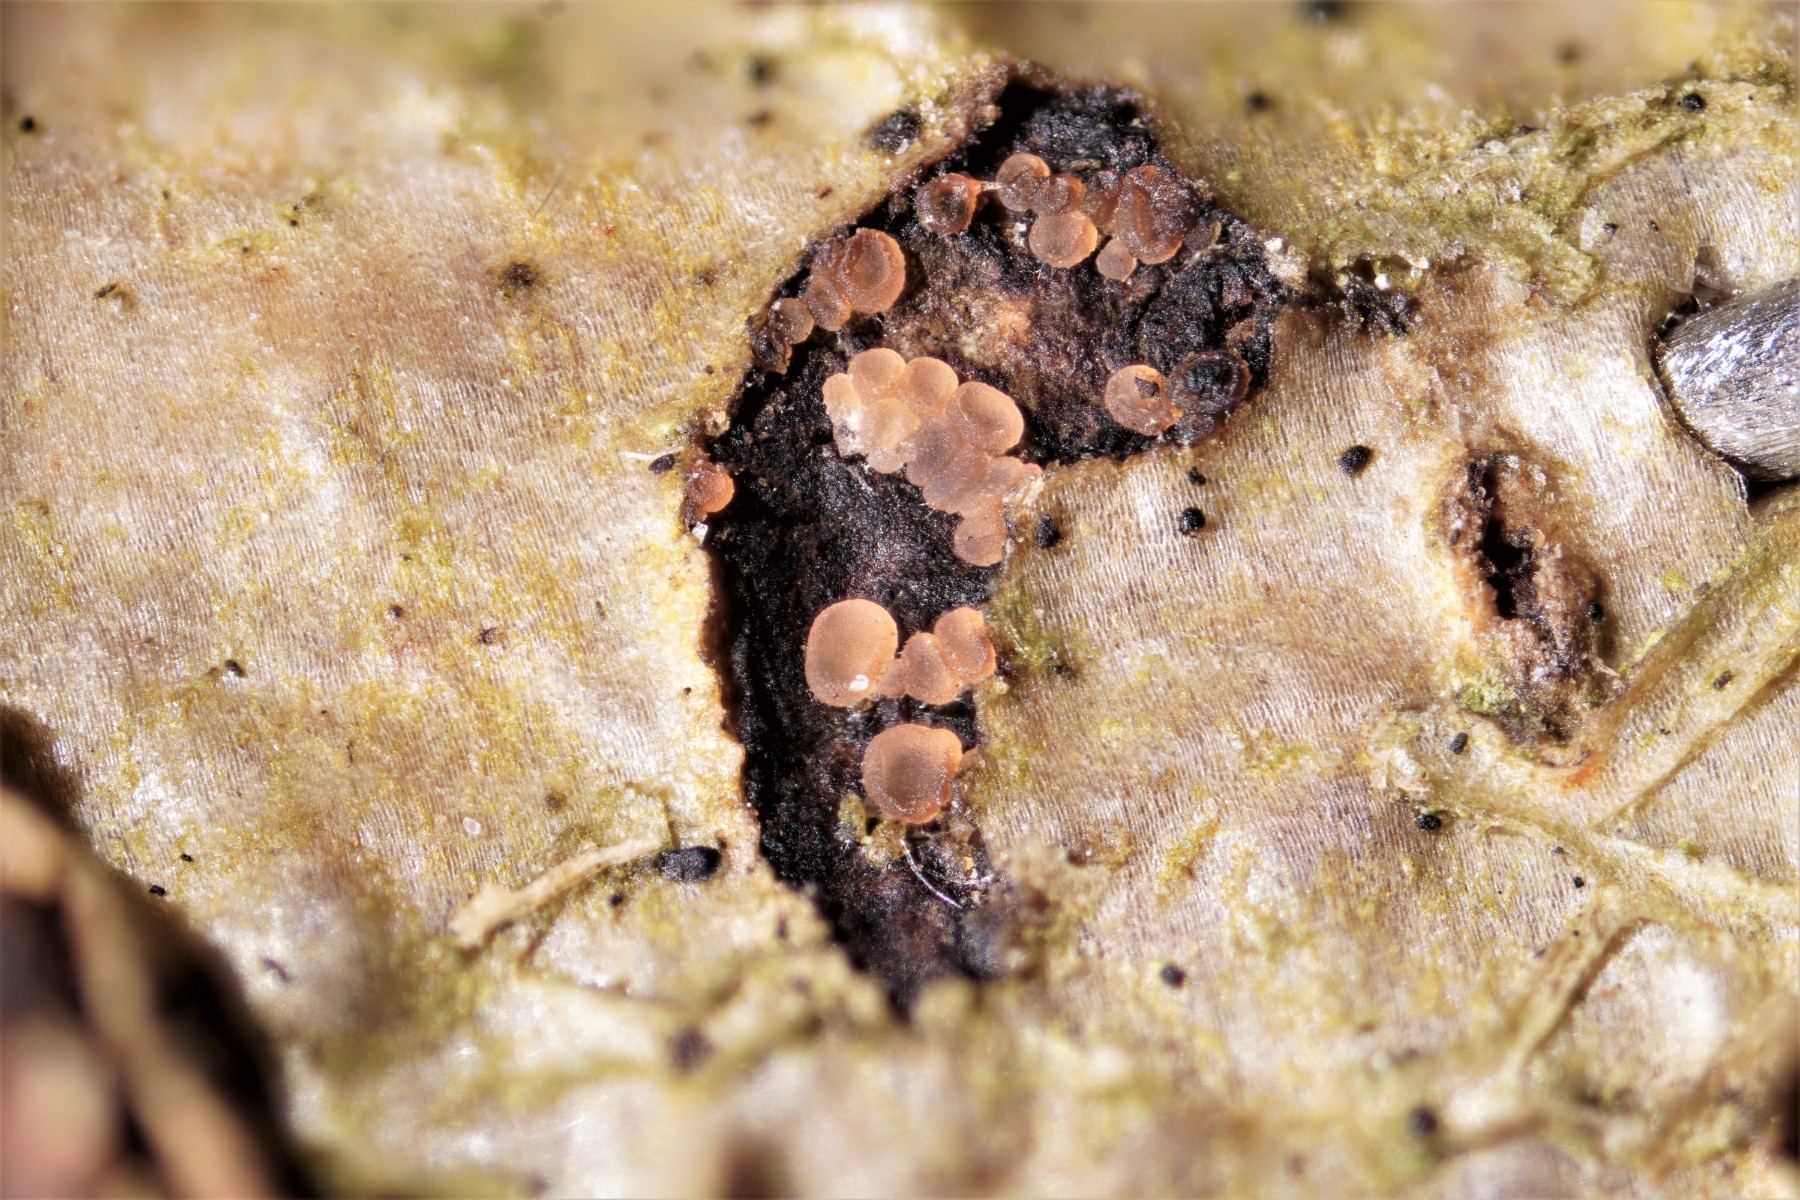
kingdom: Fungi
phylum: Ascomycota
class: Orbiliomycetes
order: Orbiliales
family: Orbiliaceae
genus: Orbilia
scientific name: Orbilia eucalypti
